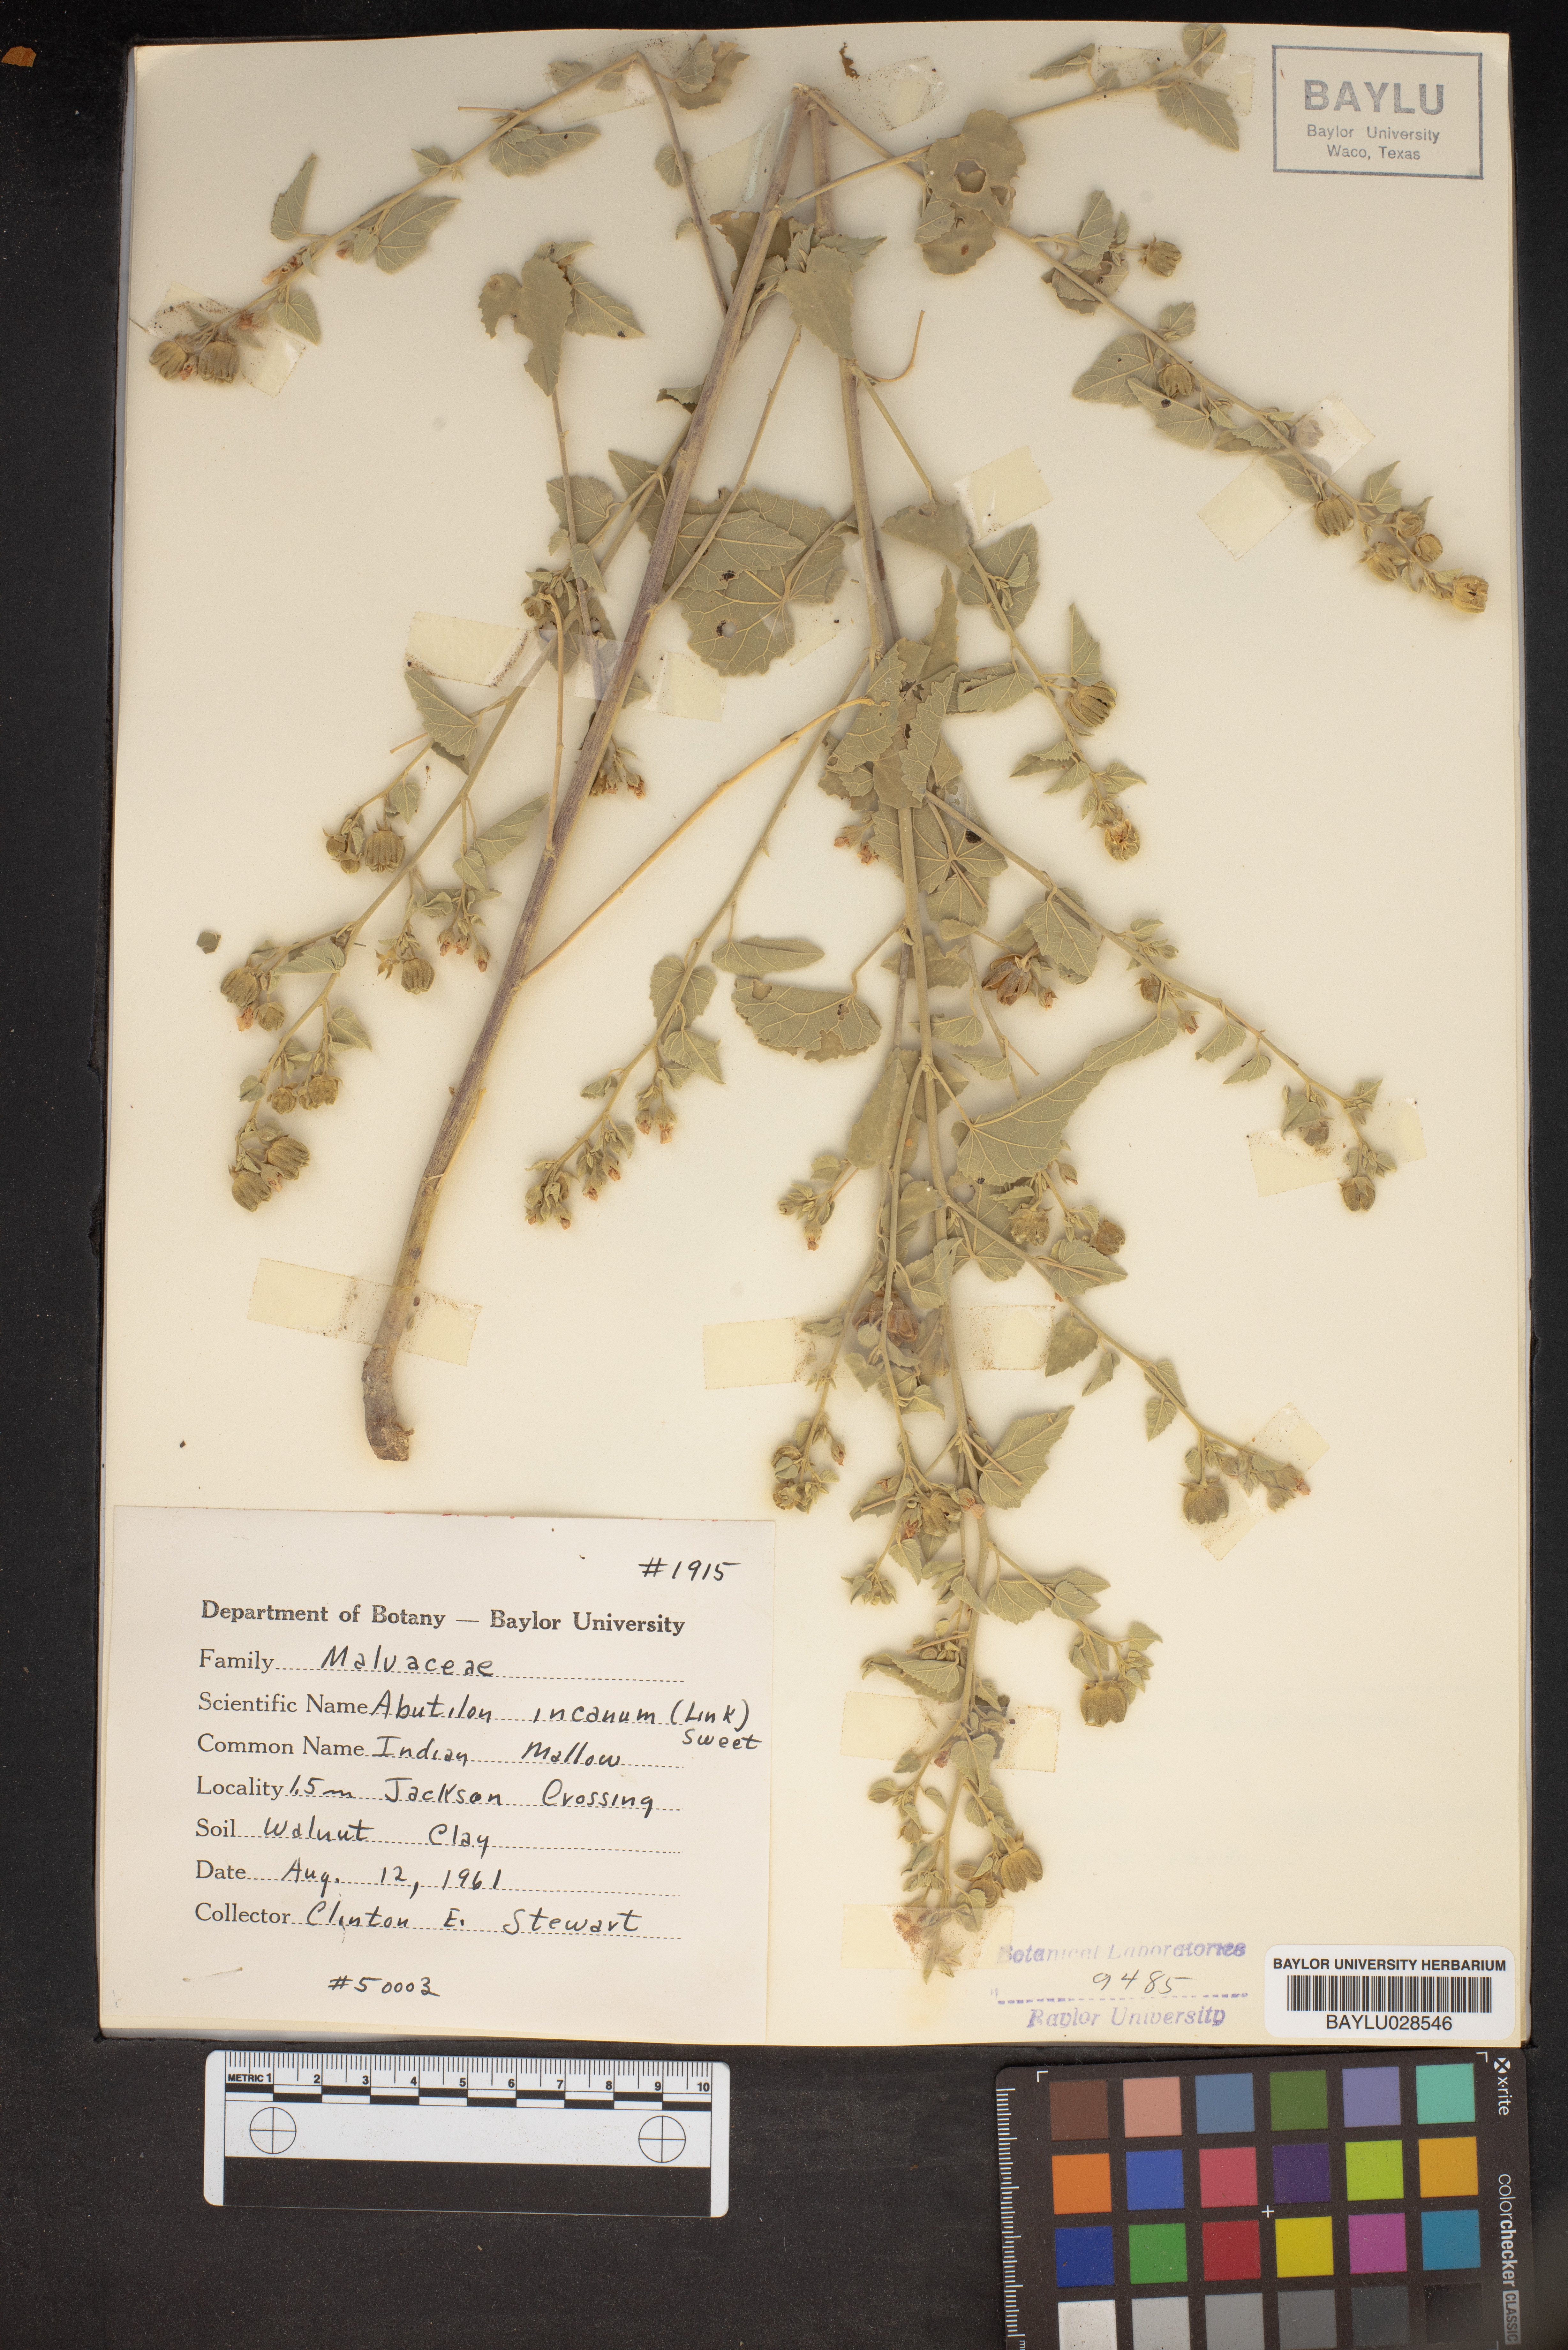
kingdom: Plantae
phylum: Tracheophyta
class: Magnoliopsida
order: Malvales
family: Malvaceae
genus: Abutilon
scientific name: Abutilon incanum
